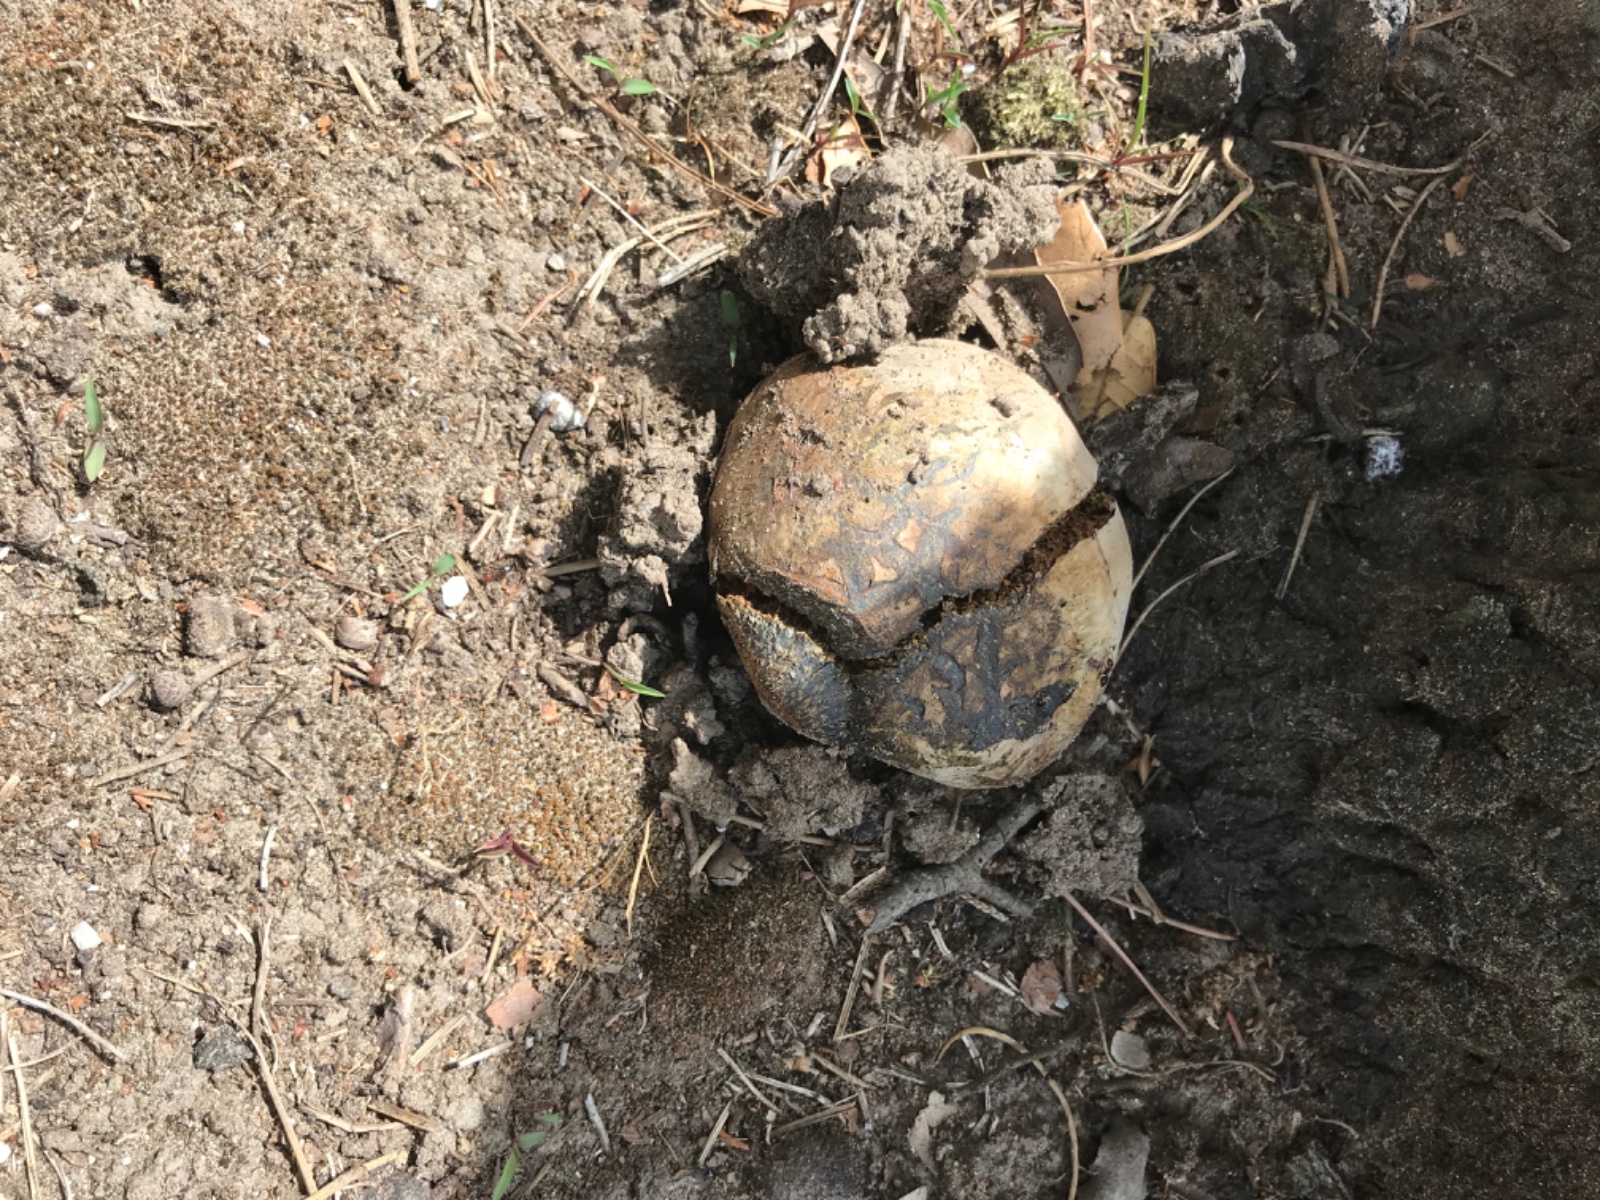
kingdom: Fungi
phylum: Basidiomycota
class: Agaricomycetes
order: Boletales
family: Sclerodermataceae
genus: Pisolithus
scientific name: Pisolithus
